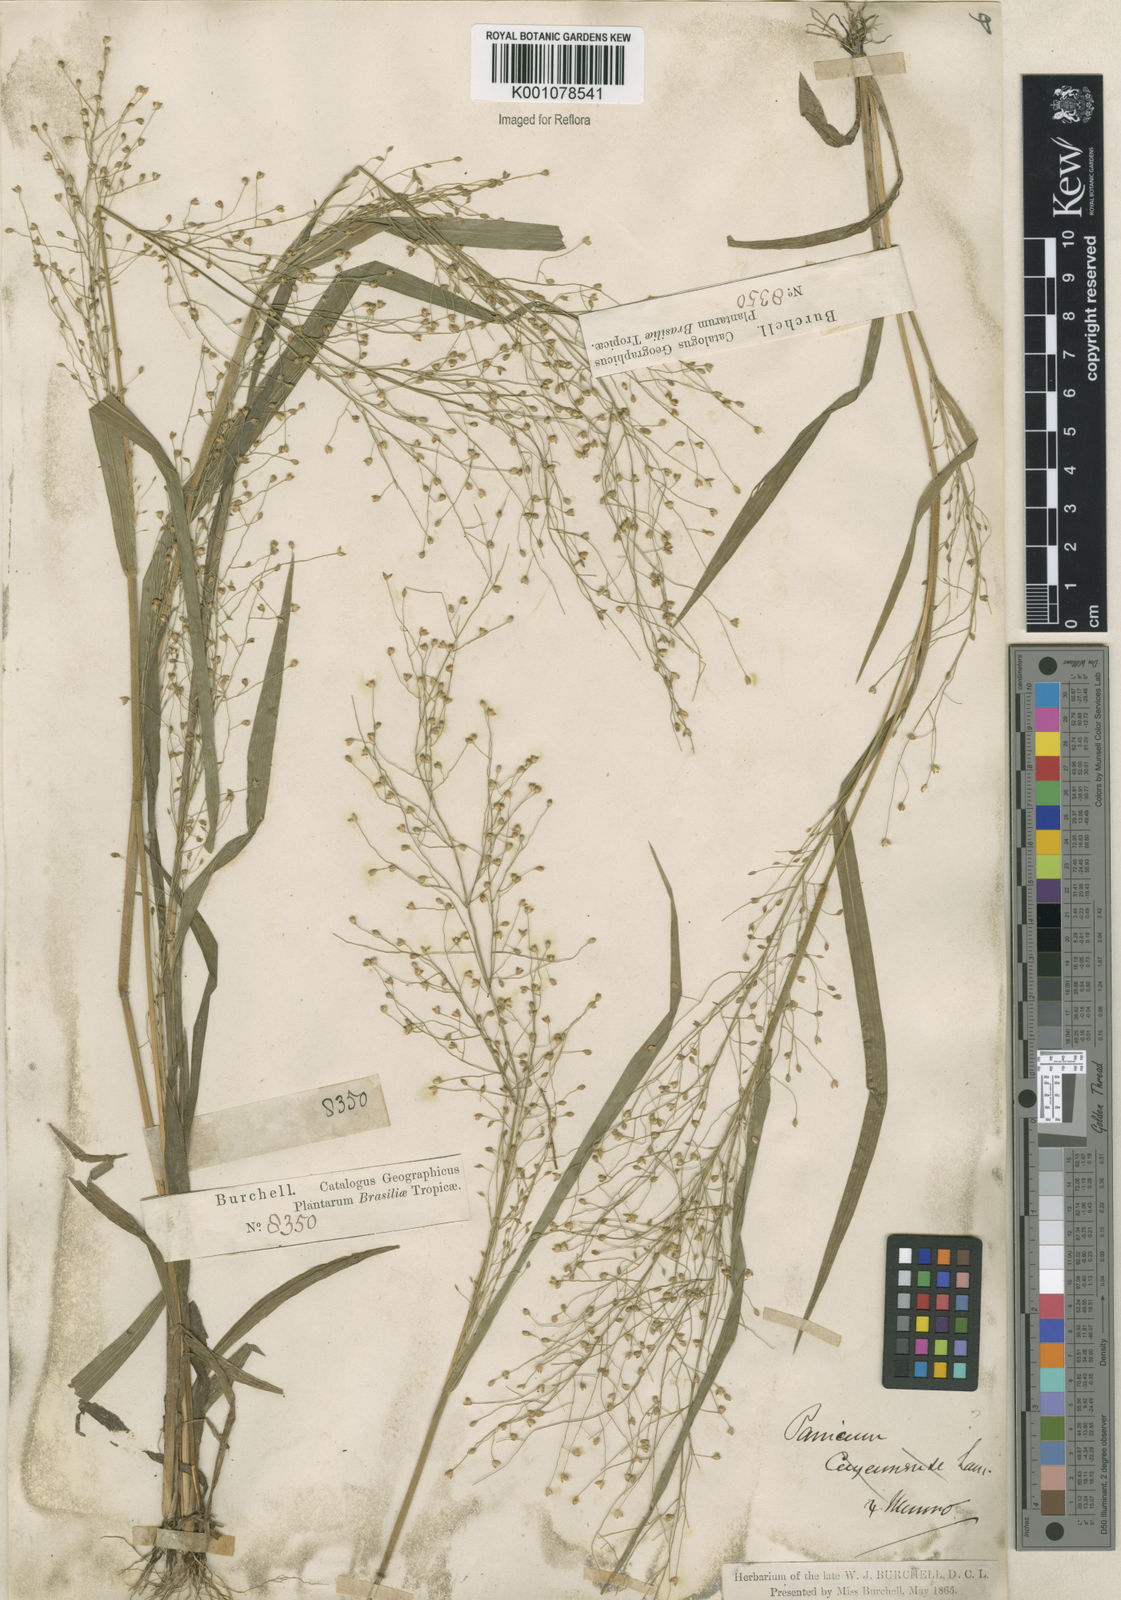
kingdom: Plantae
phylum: Tracheophyta
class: Liliopsida
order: Poales
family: Poaceae
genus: Panicum
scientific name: Panicum cayennense
